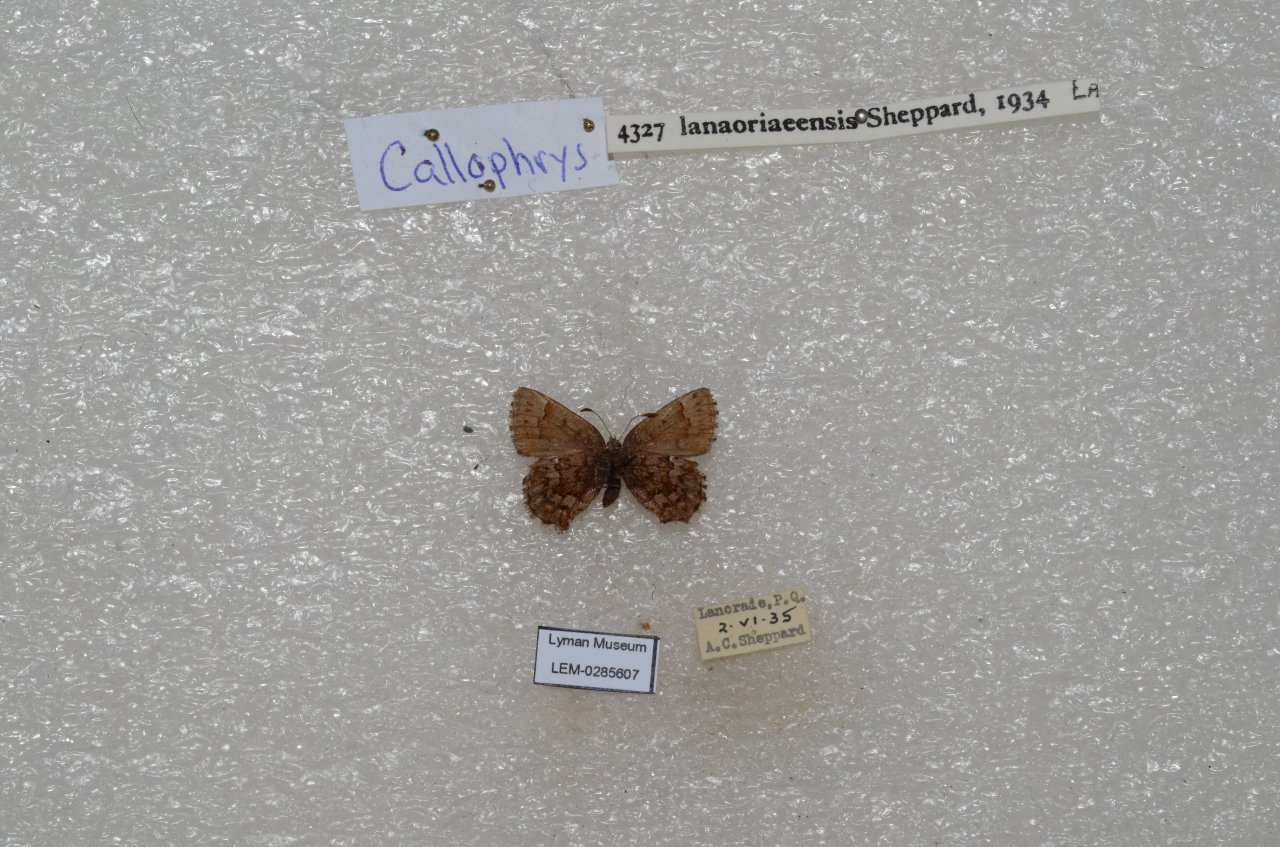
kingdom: Animalia
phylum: Arthropoda
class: Insecta
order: Lepidoptera
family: Lycaenidae
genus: Incisalia
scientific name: Incisalia lanoraieensis
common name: Bog Elfin
